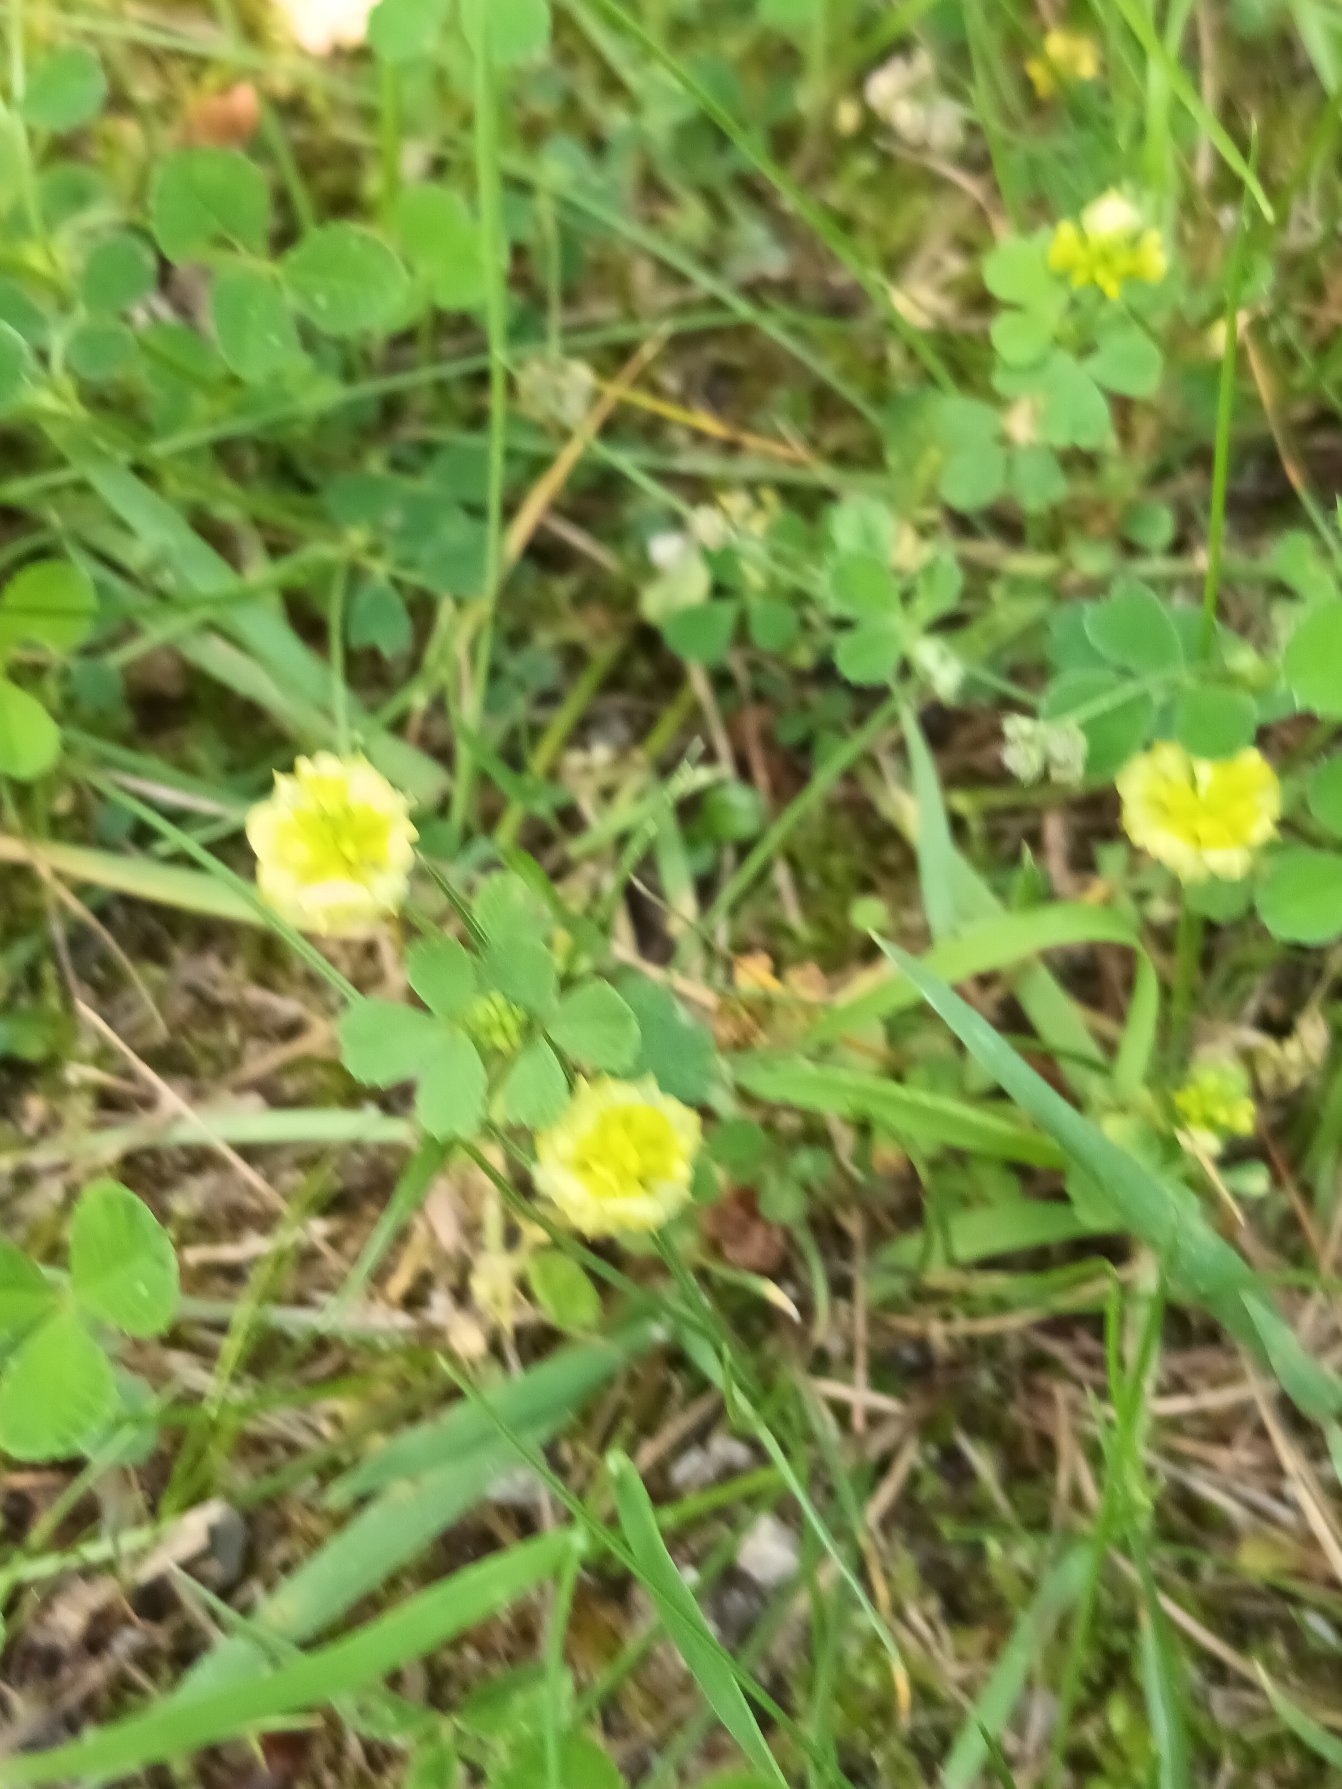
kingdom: Plantae
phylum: Tracheophyta
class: Magnoliopsida
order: Fabales
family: Fabaceae
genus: Trifolium
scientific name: Trifolium campestre
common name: Gul kløver
